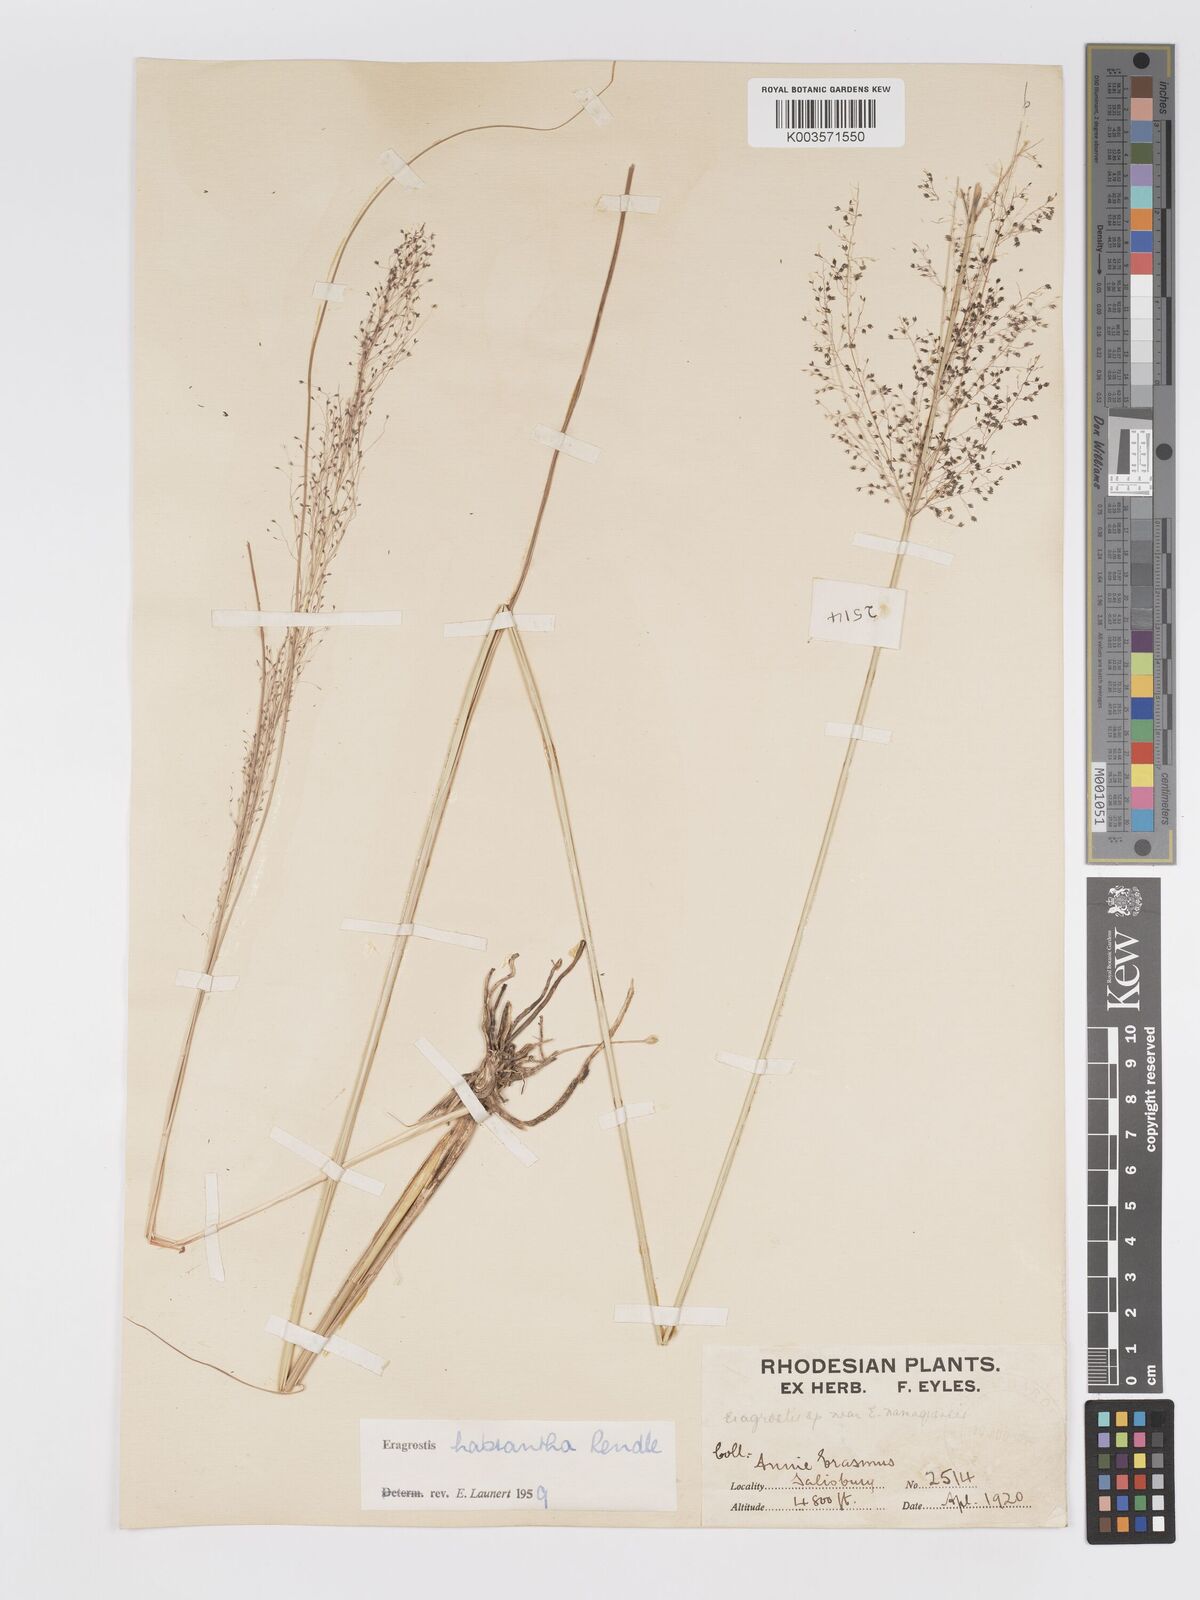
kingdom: Plantae
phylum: Tracheophyta
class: Liliopsida
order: Poales
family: Poaceae
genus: Eragrostis
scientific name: Eragrostis habrantha
